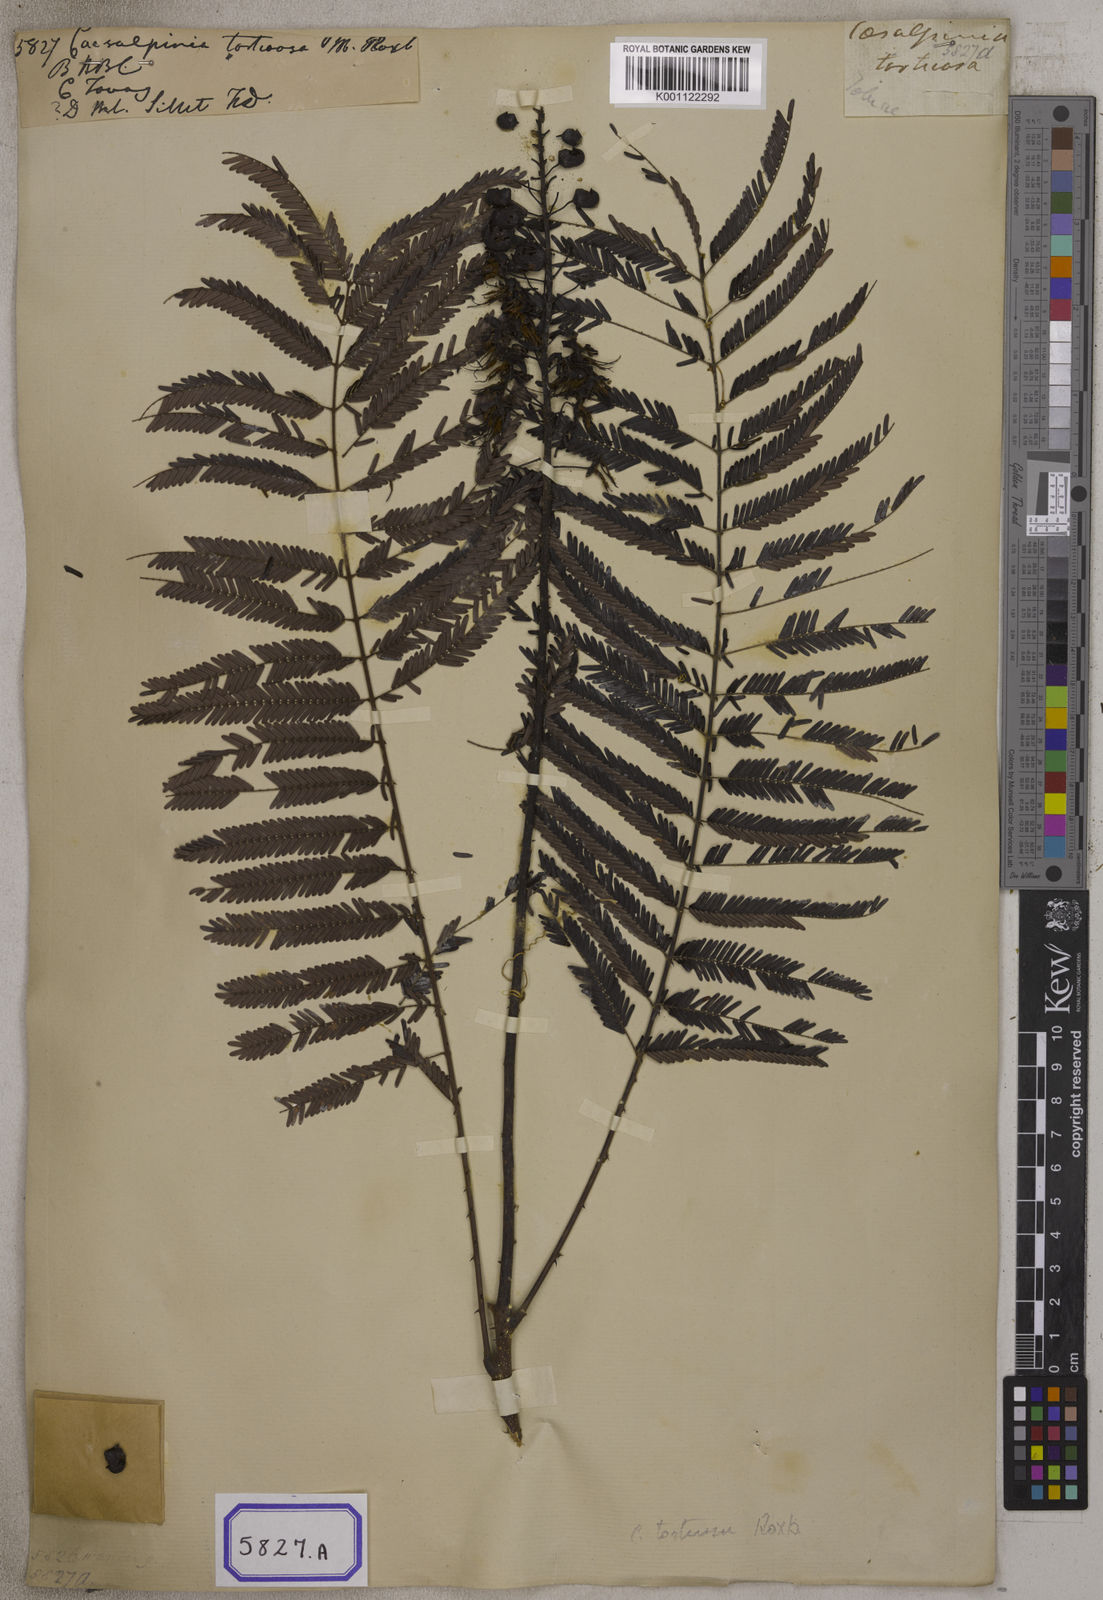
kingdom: Plantae
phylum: Tracheophyta
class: Magnoliopsida
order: Fabales
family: Fabaceae
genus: Caesalpinia
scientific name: Caesalpinia
